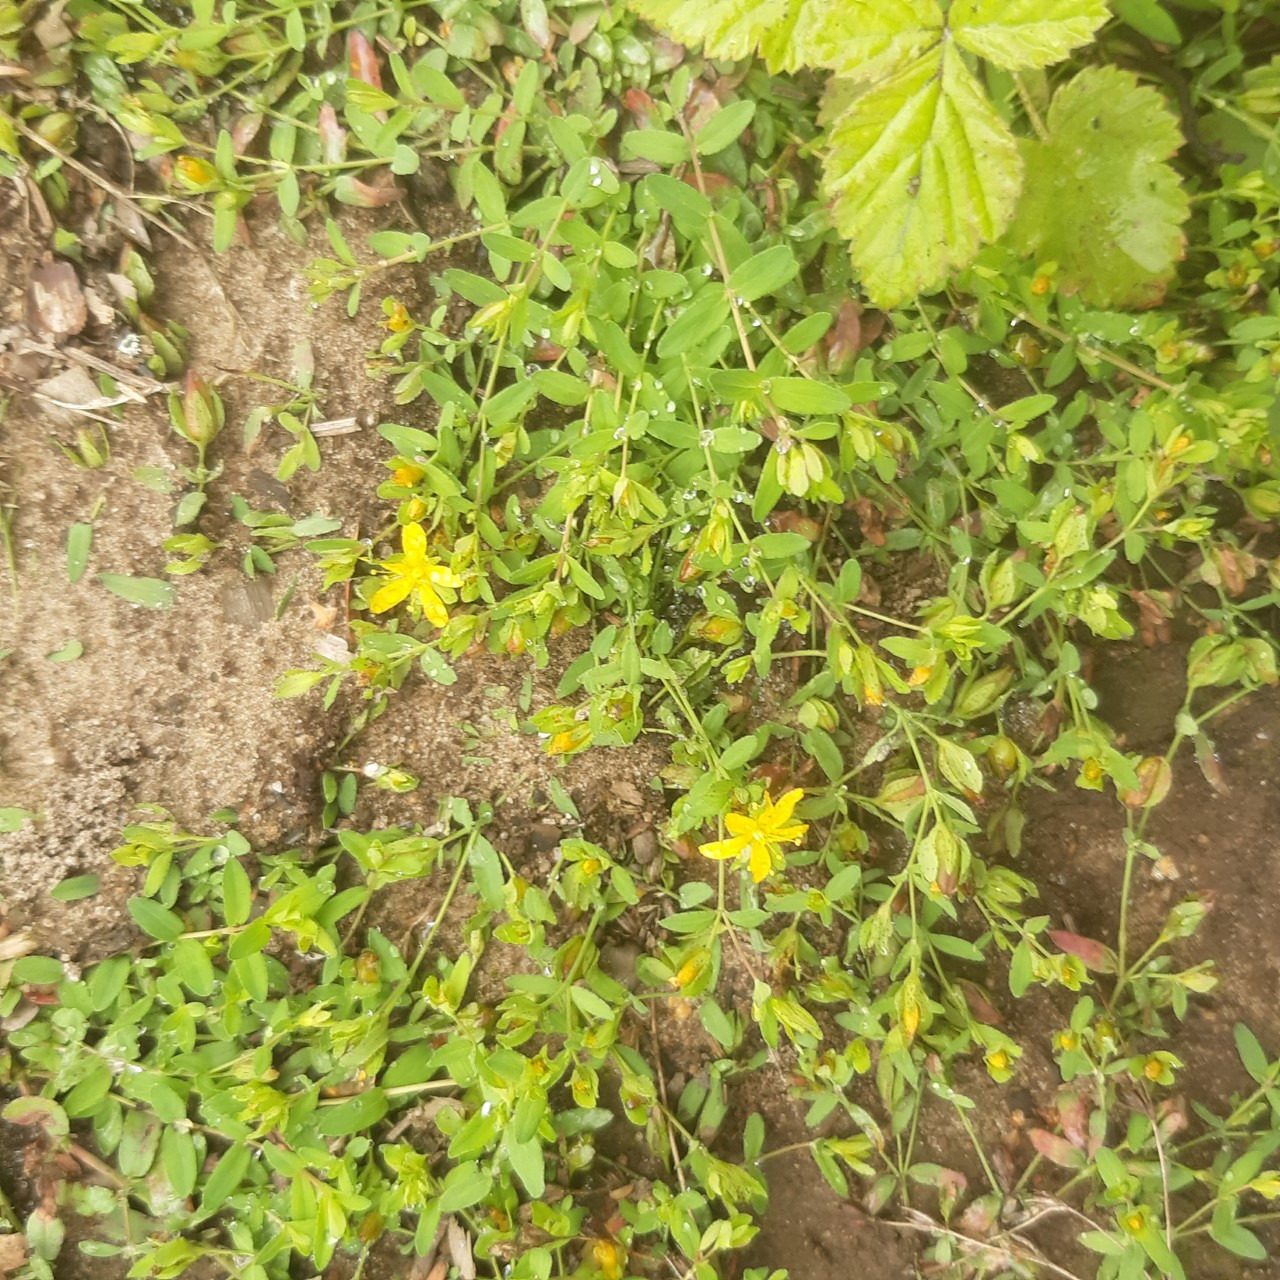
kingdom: Plantae
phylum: Tracheophyta
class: Magnoliopsida
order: Malpighiales
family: Hypericaceae
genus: Hypericum
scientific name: Hypericum humifusum
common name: Dværg-perikon
